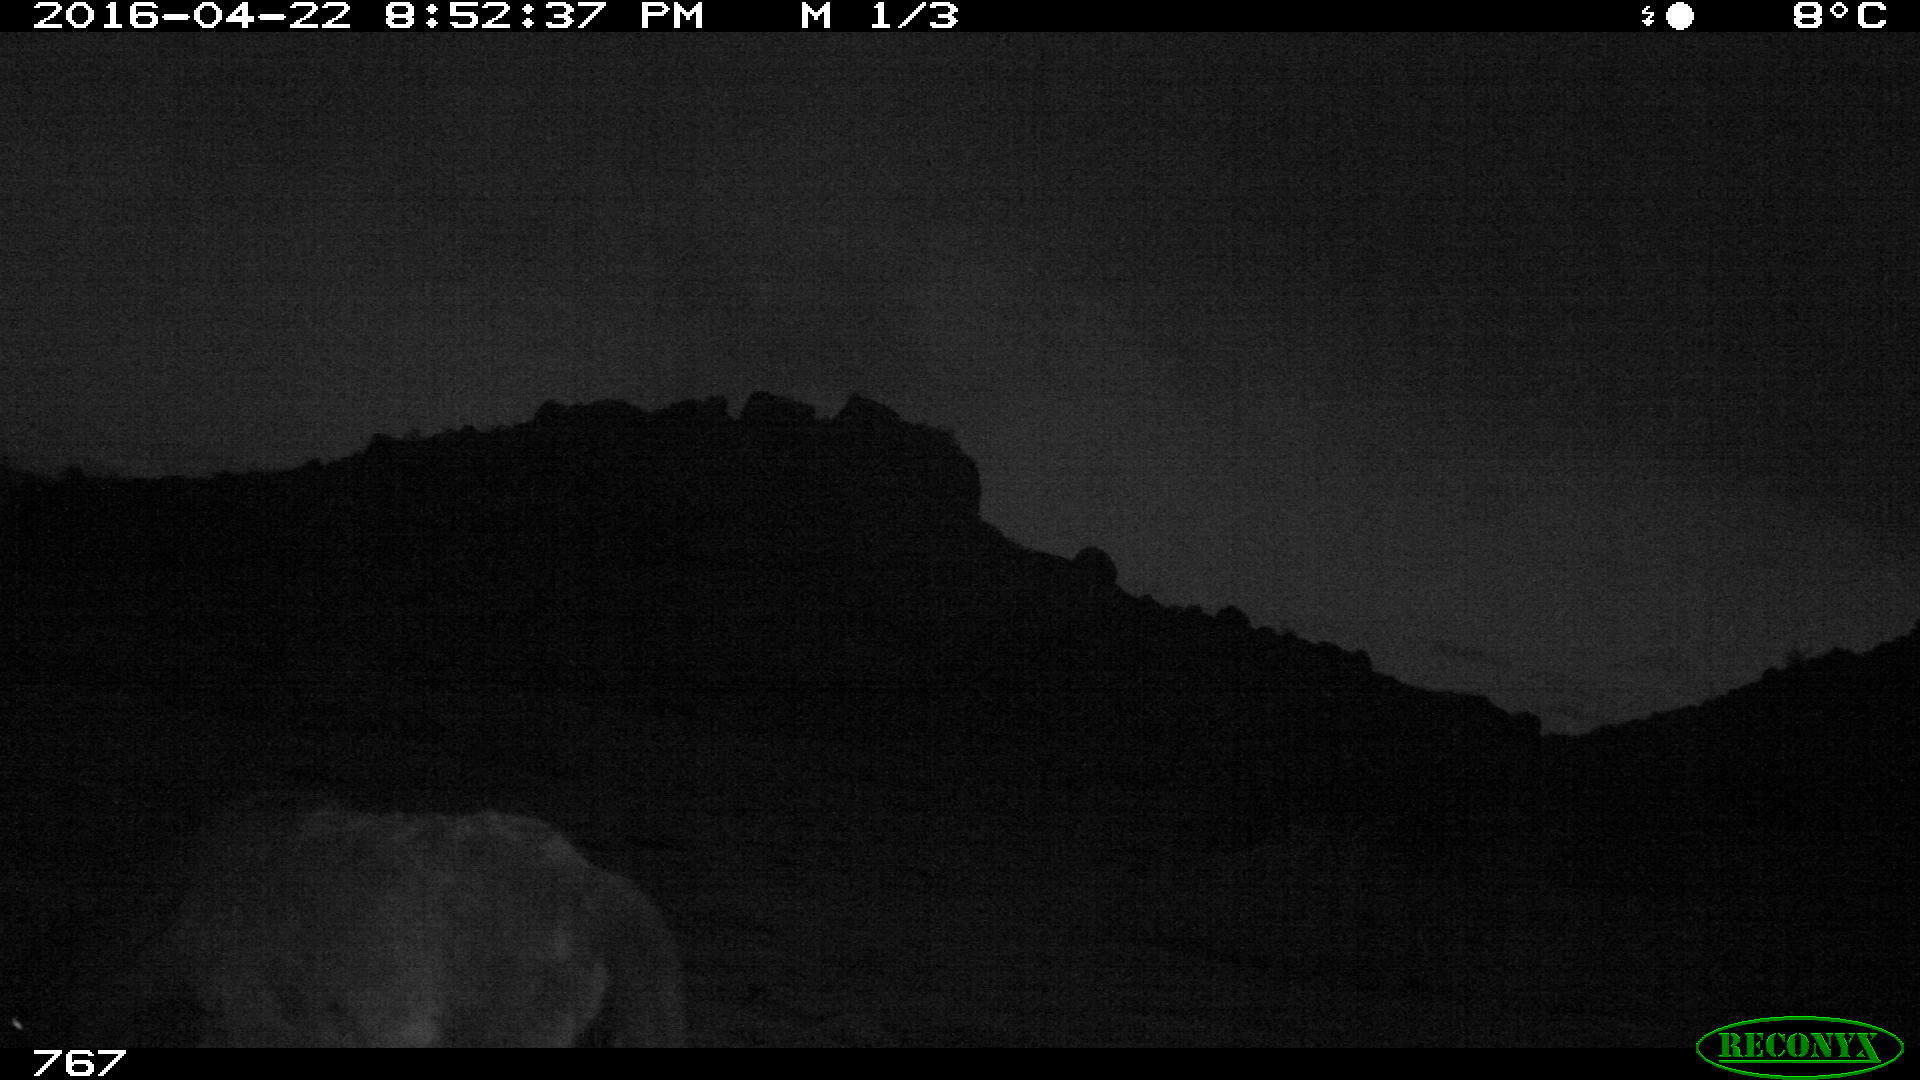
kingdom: Animalia
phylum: Chordata
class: Mammalia
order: Perissodactyla
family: Equidae
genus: Equus
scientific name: Equus caballus
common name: Horse
